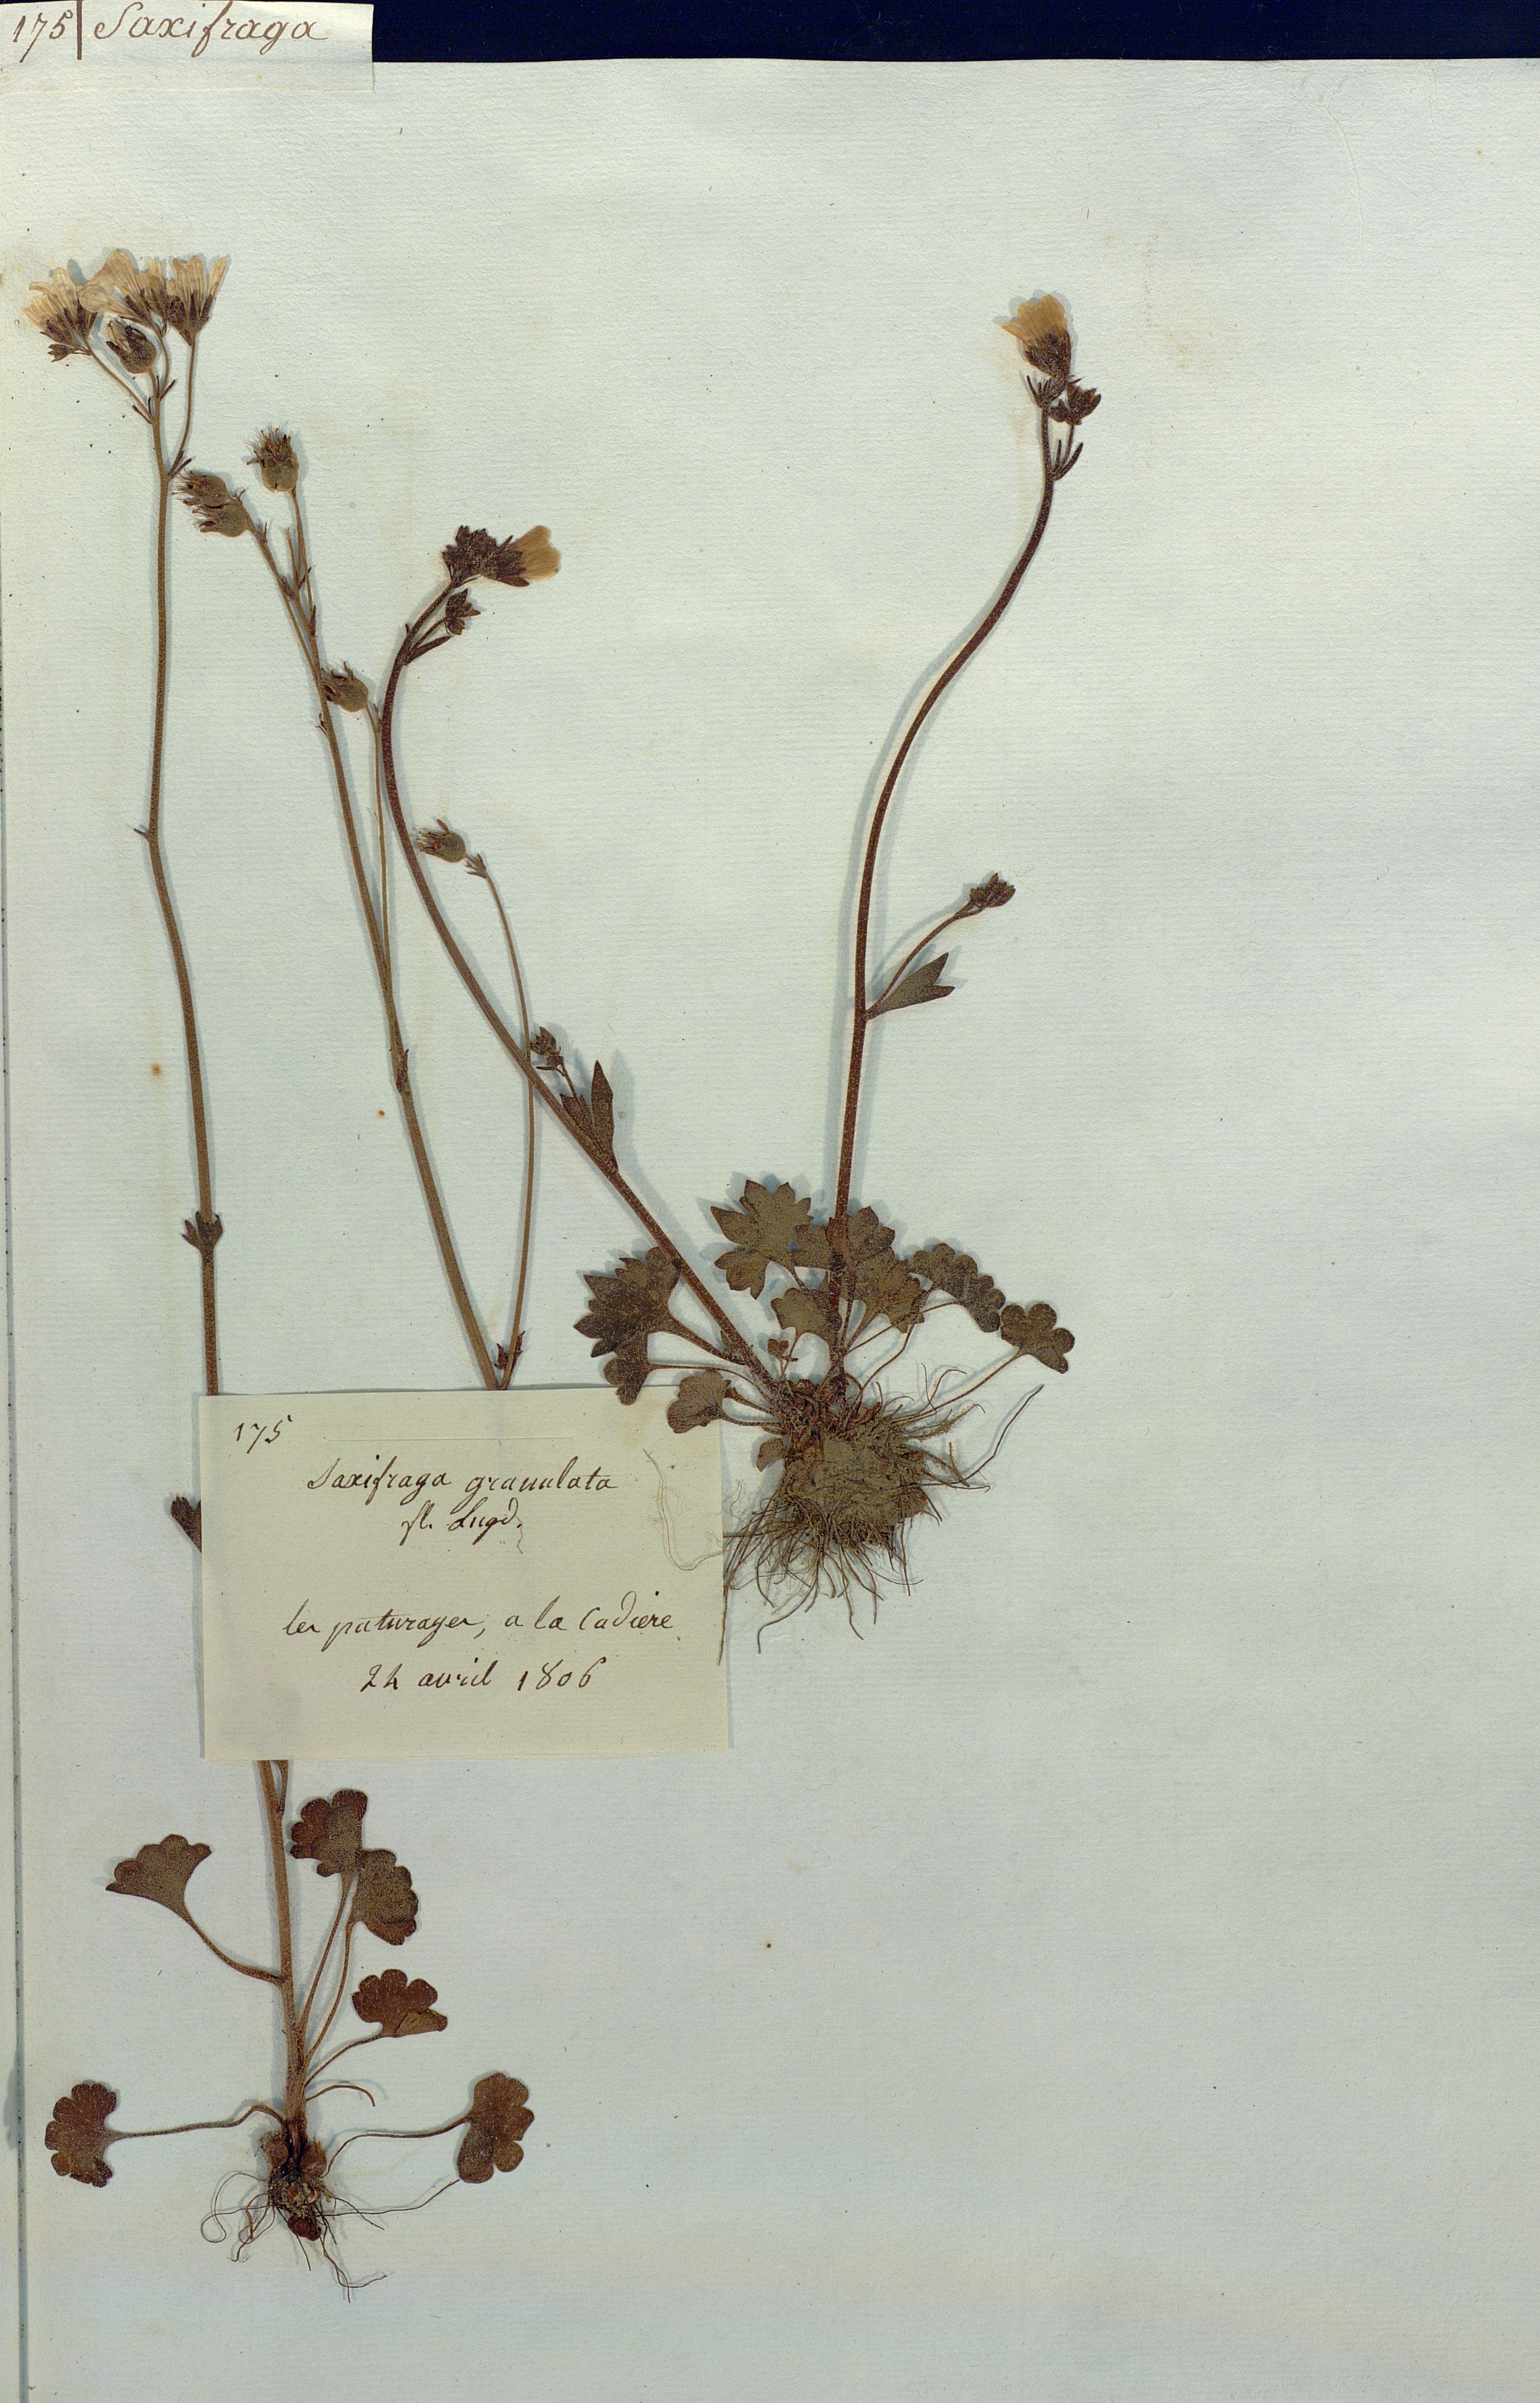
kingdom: Plantae
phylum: Tracheophyta
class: Magnoliopsida
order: Saxifragales
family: Saxifragaceae
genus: Saxifraga
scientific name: Saxifraga granulata
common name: Meadow saxifrage
